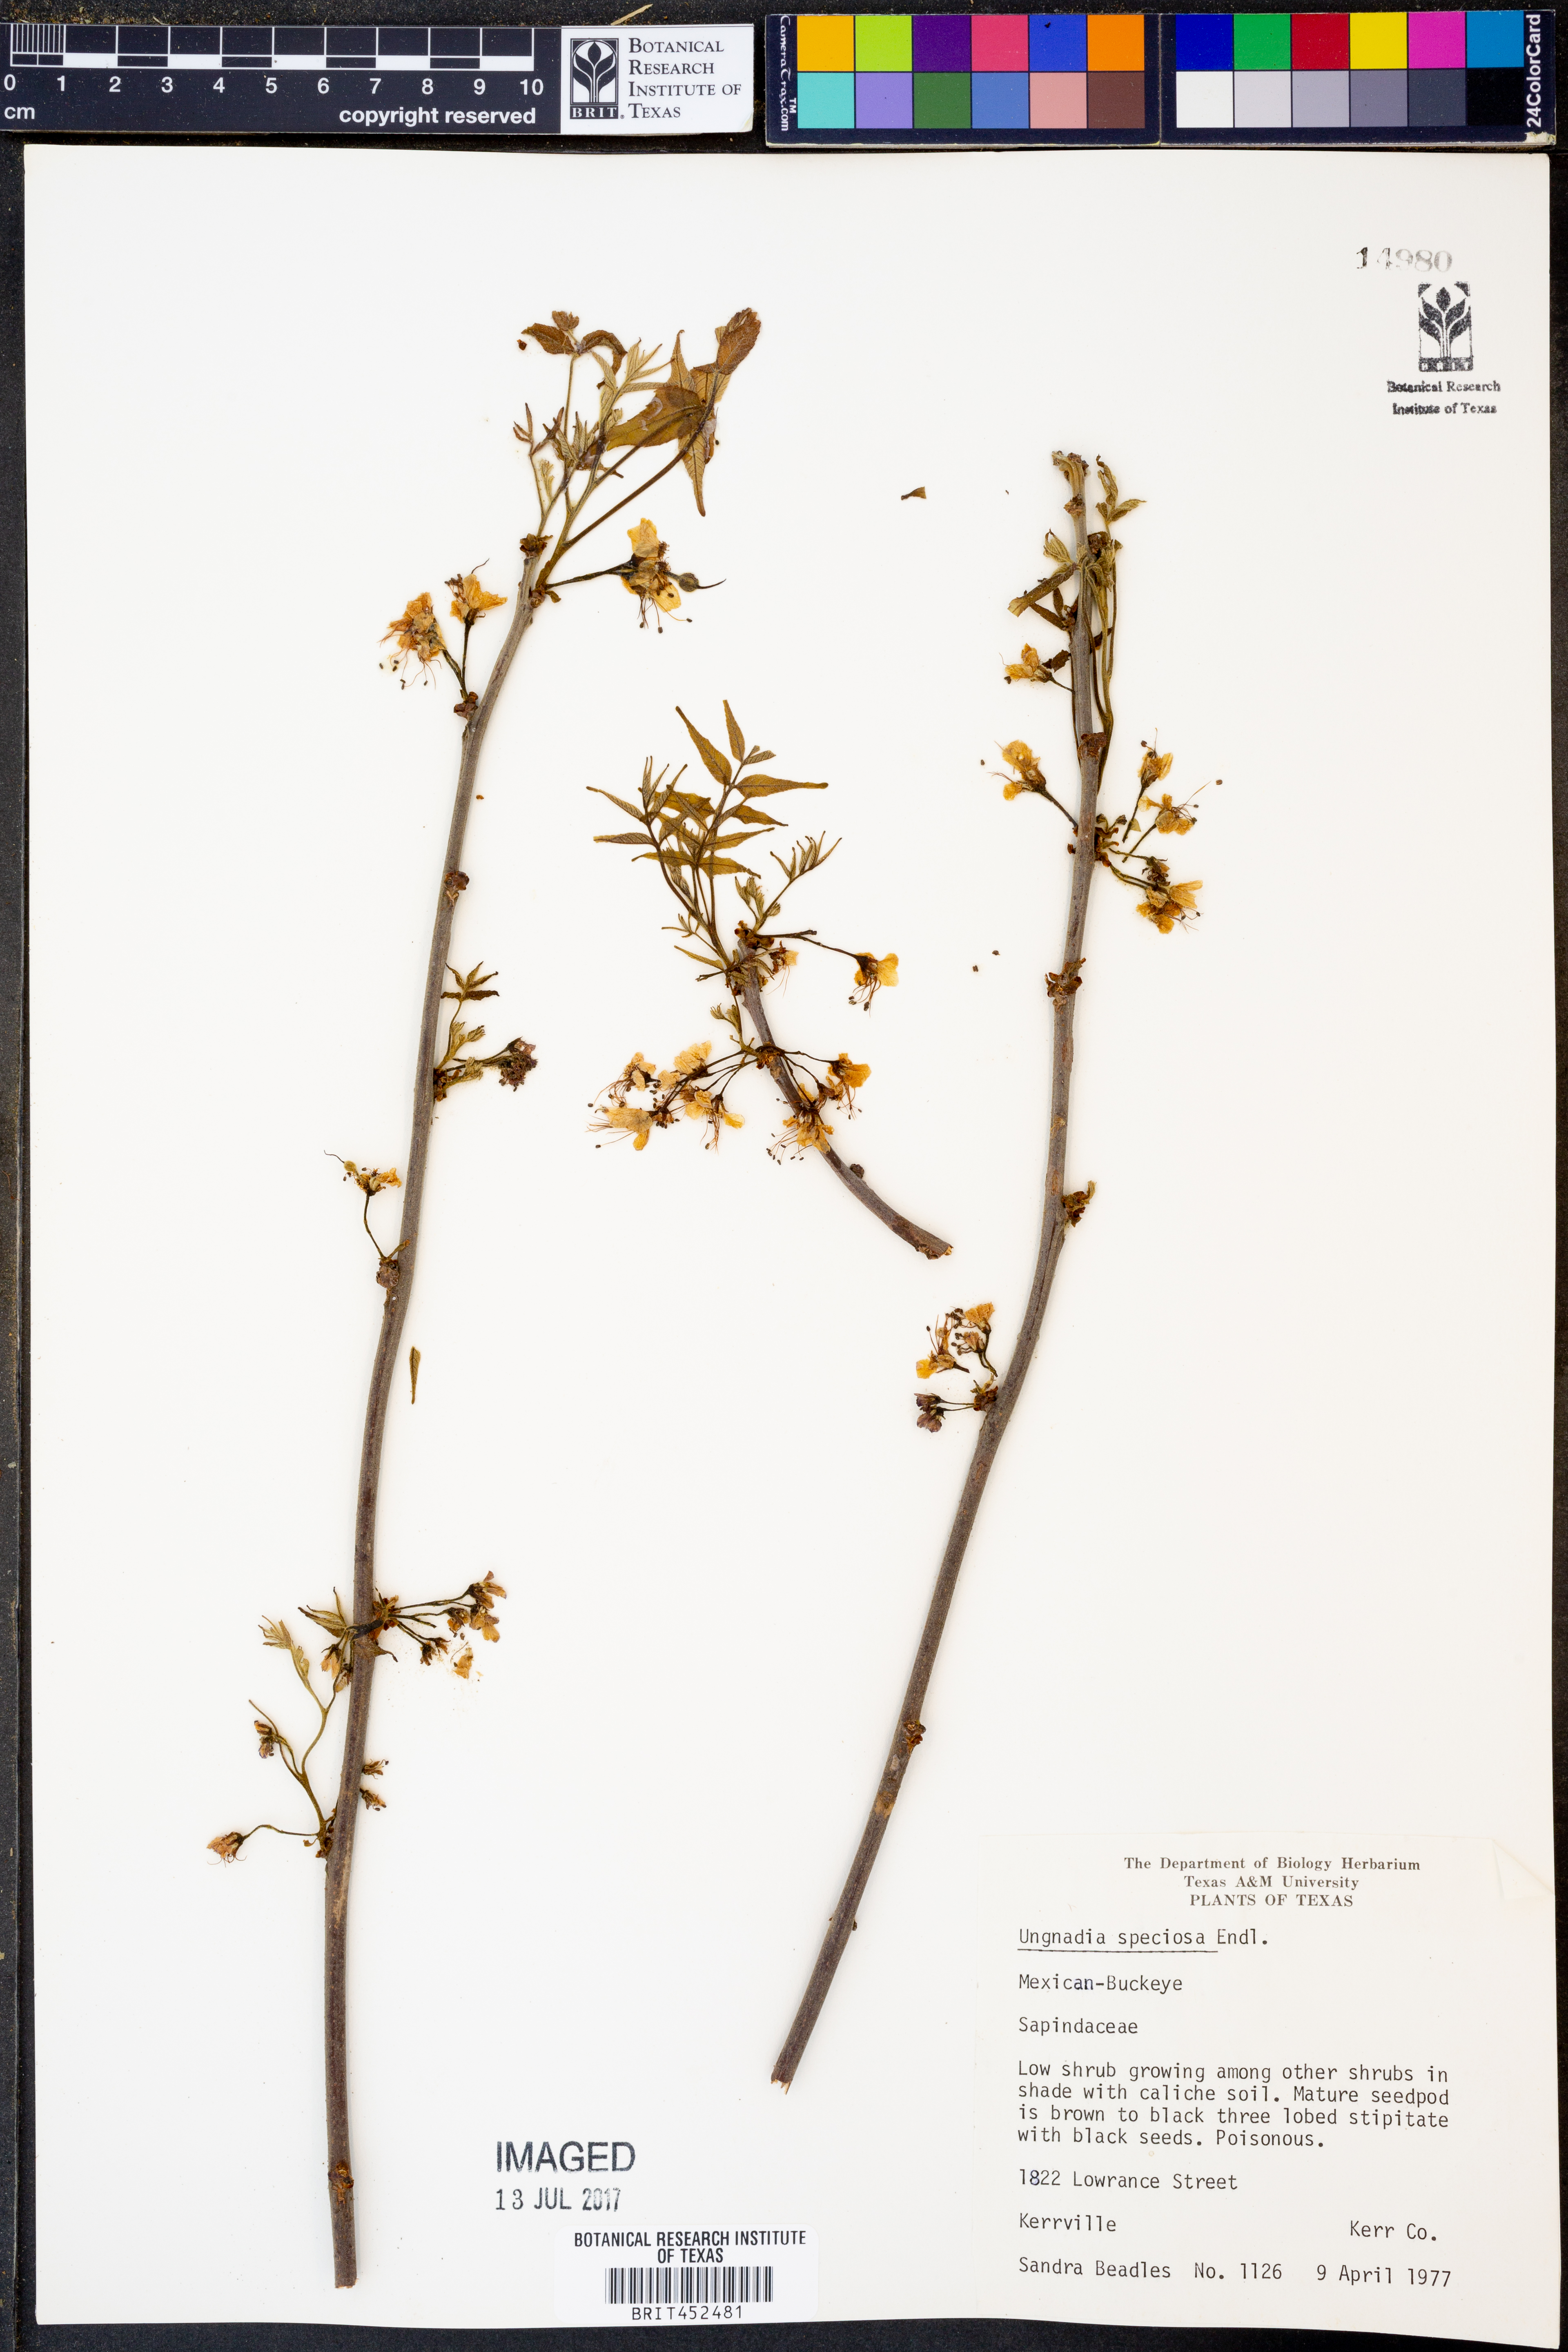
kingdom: Plantae
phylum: Tracheophyta
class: Magnoliopsida
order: Sapindales
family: Sapindaceae
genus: Ungnadia
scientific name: Ungnadia speciosa
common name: Texas-buckeye
